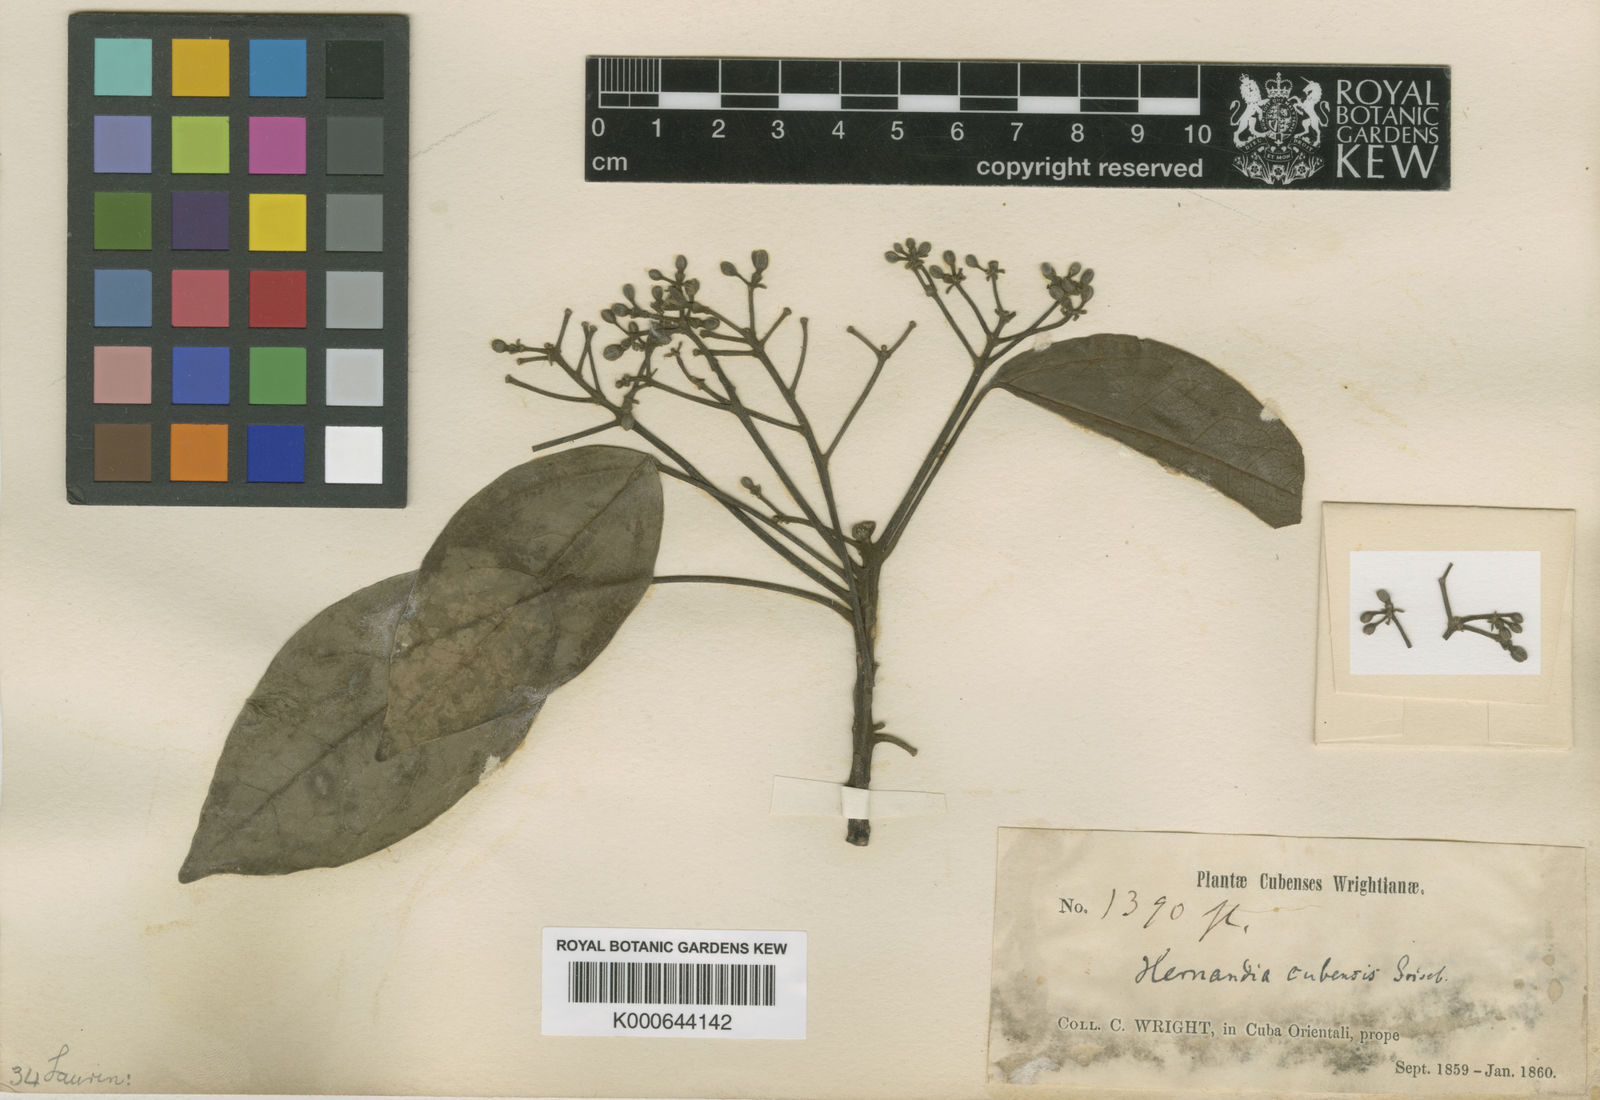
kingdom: Plantae
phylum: Tracheophyta
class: Magnoliopsida
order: Laurales
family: Hernandiaceae
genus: Hernandia
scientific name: Hernandia cubensis
